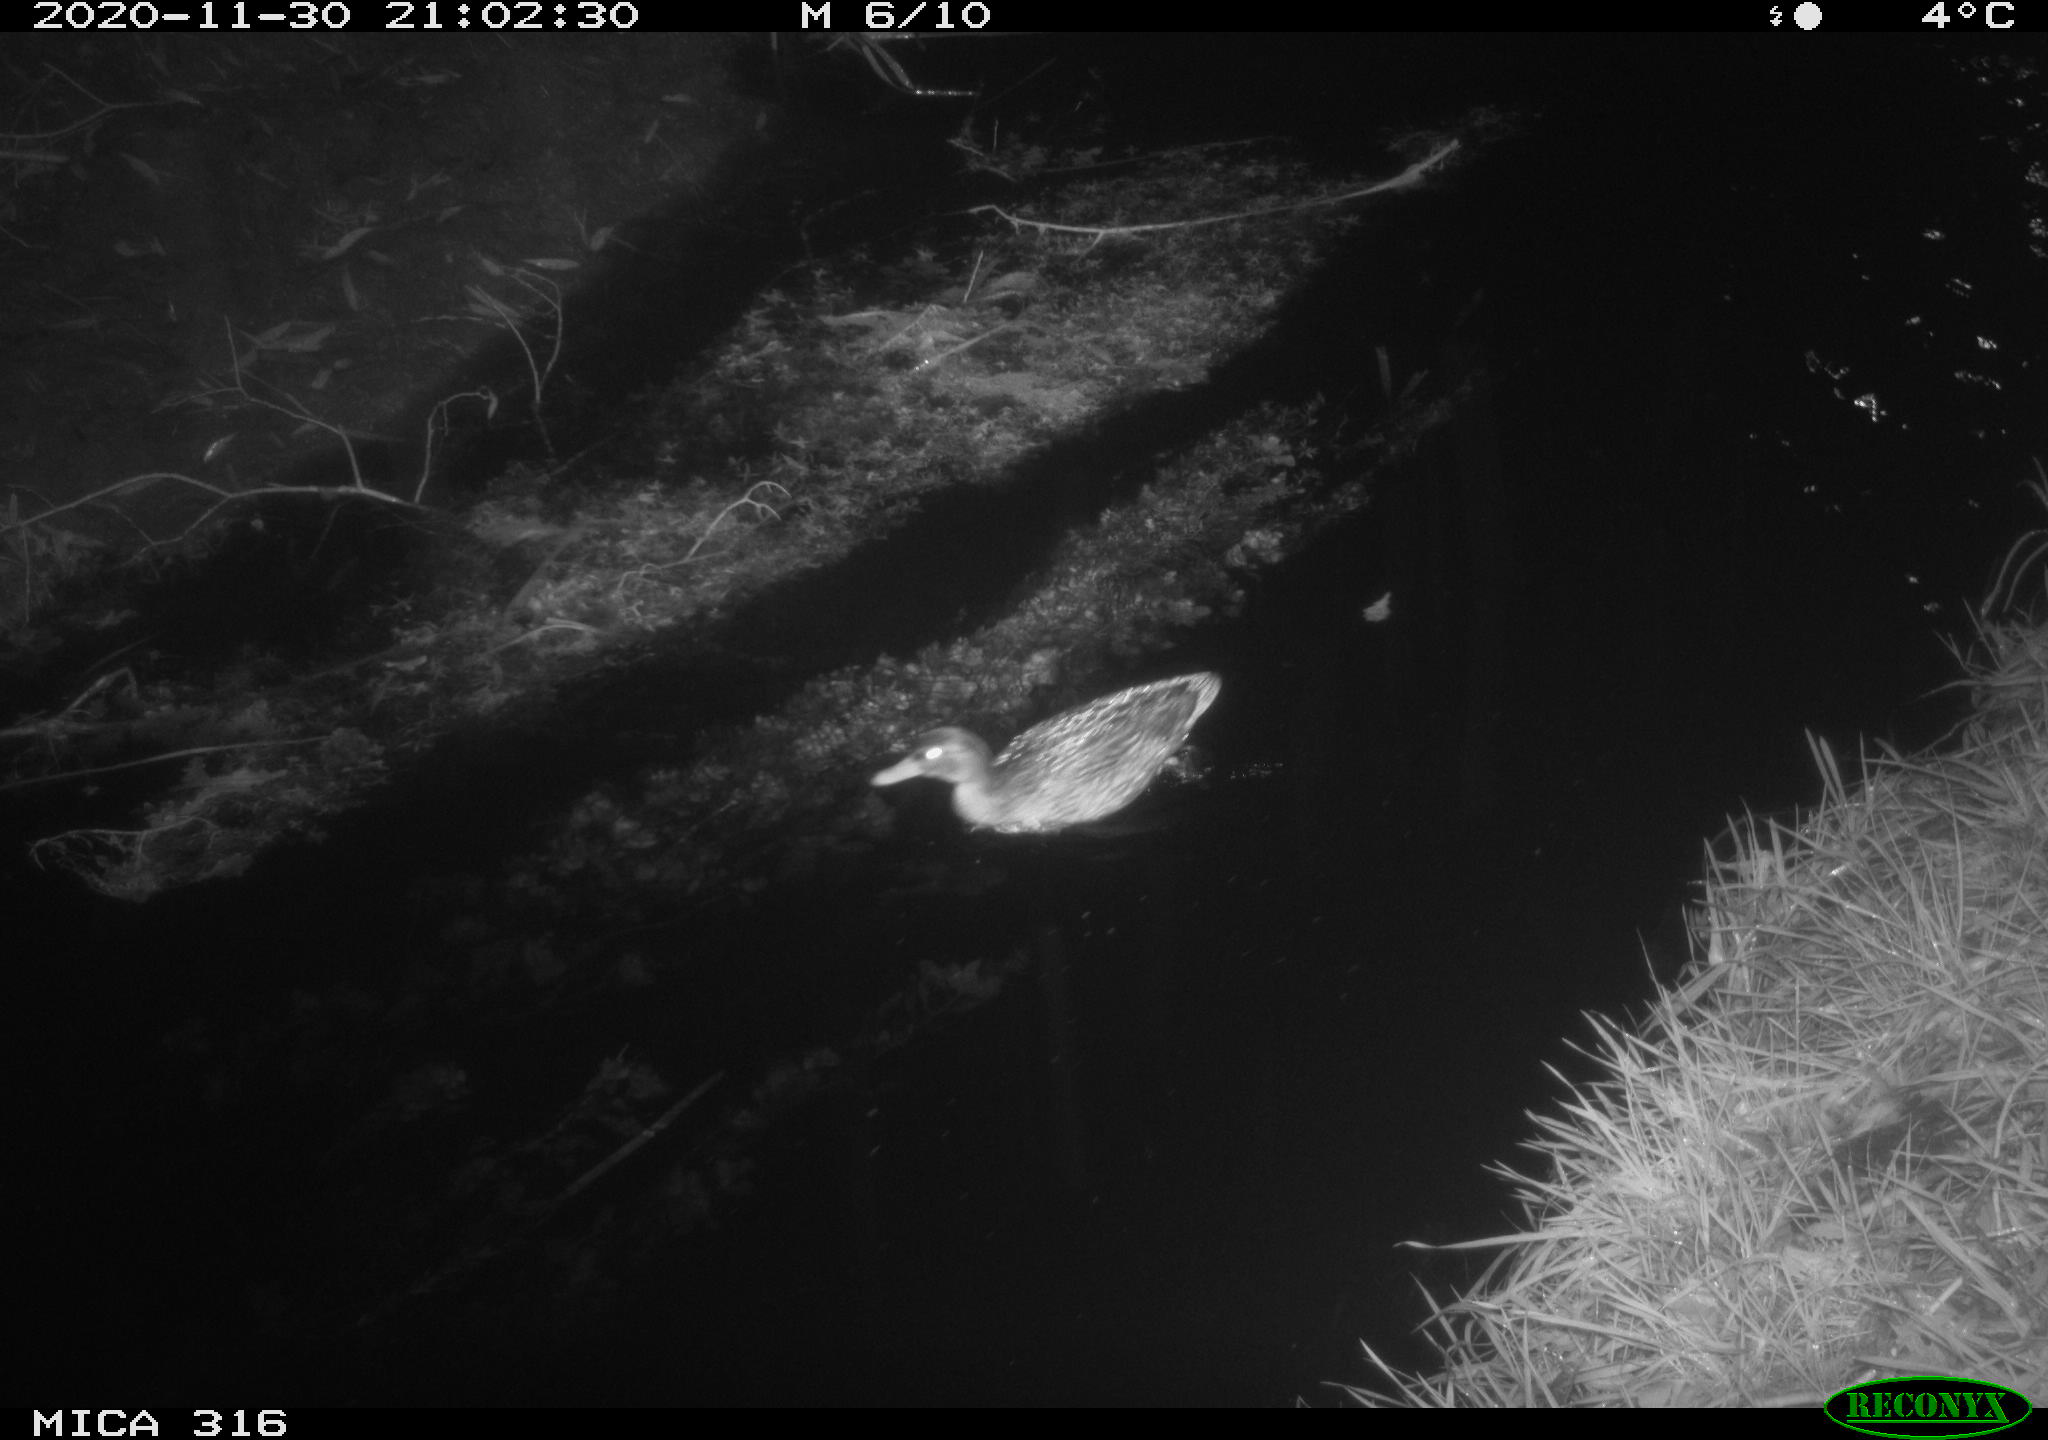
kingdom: Animalia
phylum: Chordata
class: Aves
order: Anseriformes
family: Anatidae
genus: Anas
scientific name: Anas platyrhynchos
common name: Mallard
